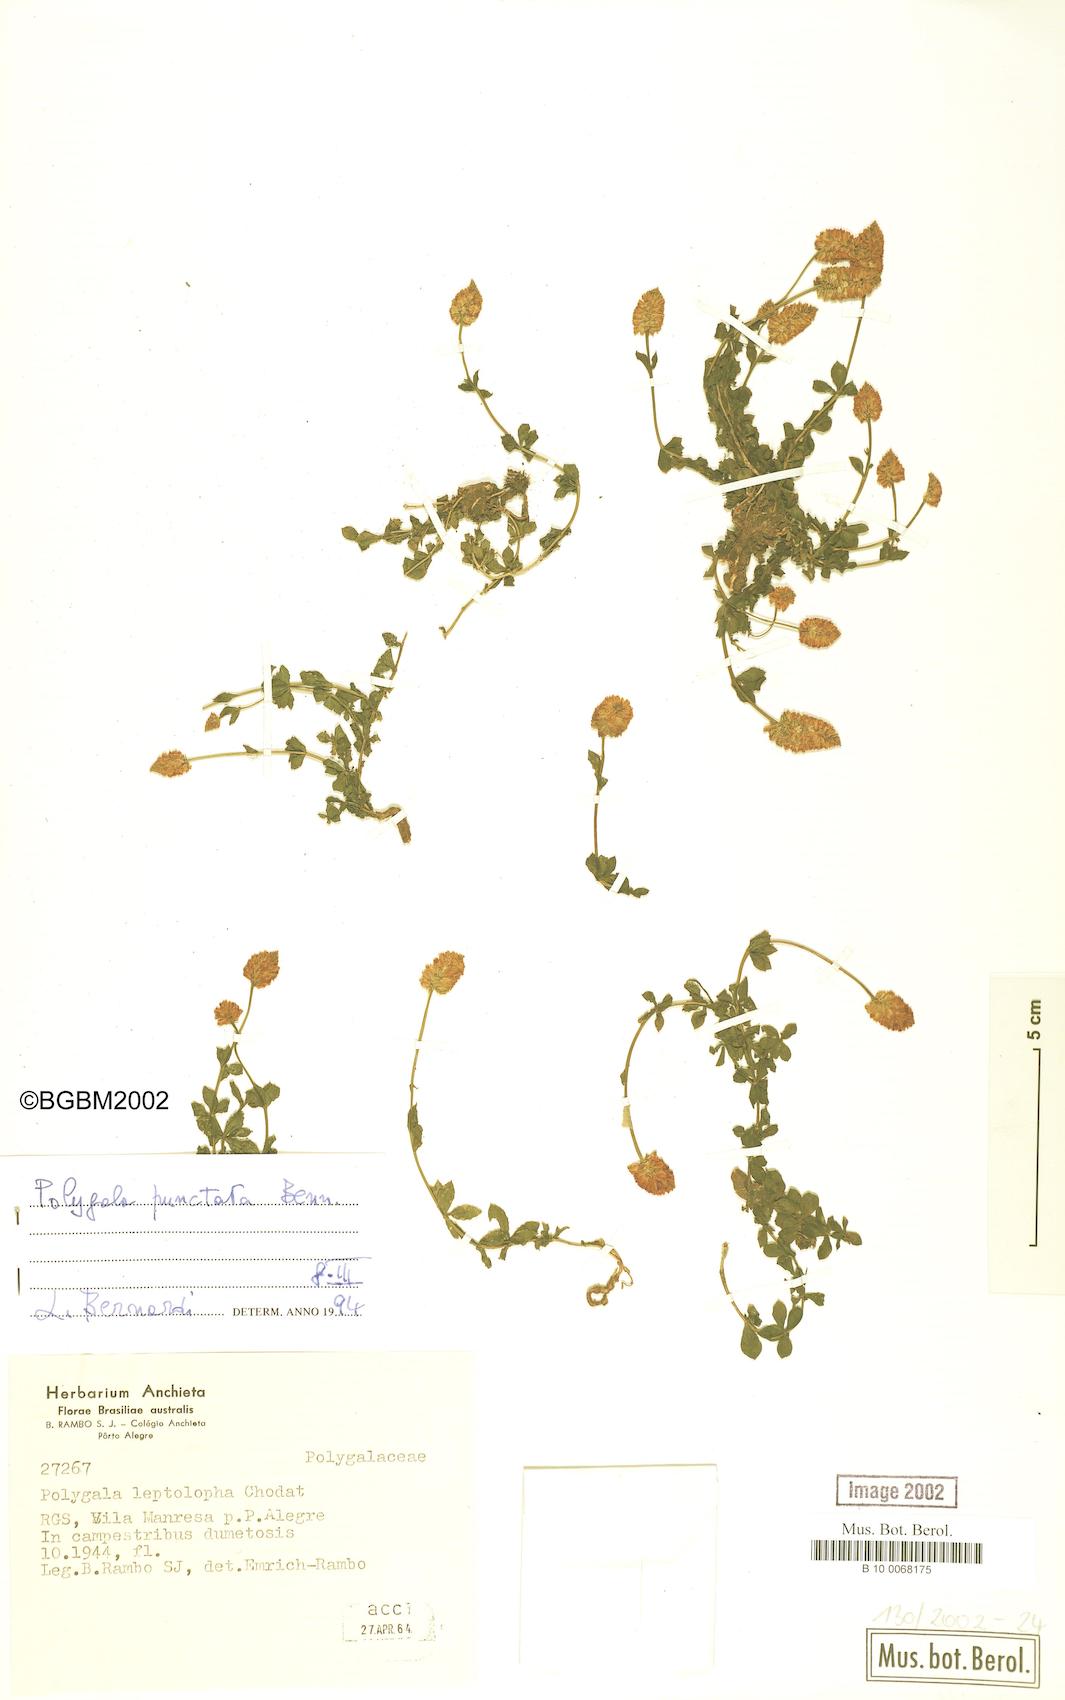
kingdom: Plantae
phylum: Tracheophyta
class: Magnoliopsida
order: Fabales
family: Polygalaceae
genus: Polygala
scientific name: Polygala punctata
